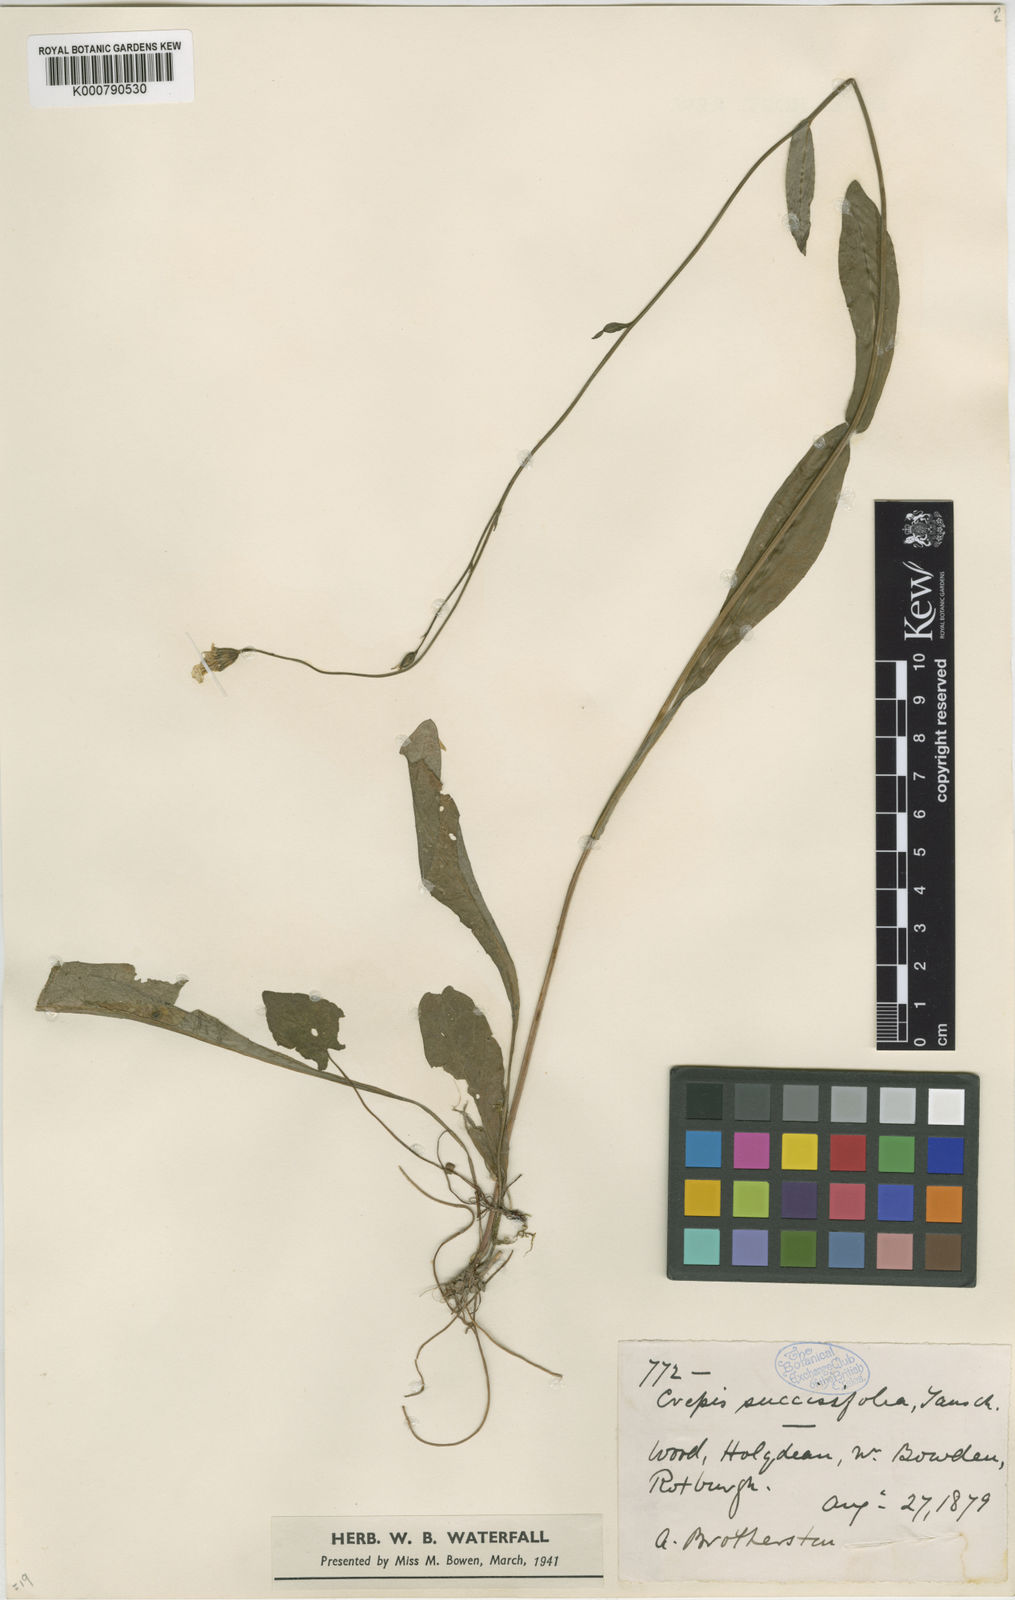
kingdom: Plantae
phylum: Tracheophyta
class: Magnoliopsida
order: Asterales
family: Asteraceae
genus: Crepis
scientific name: Crepis mollis
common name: Northern hawk's-beard
